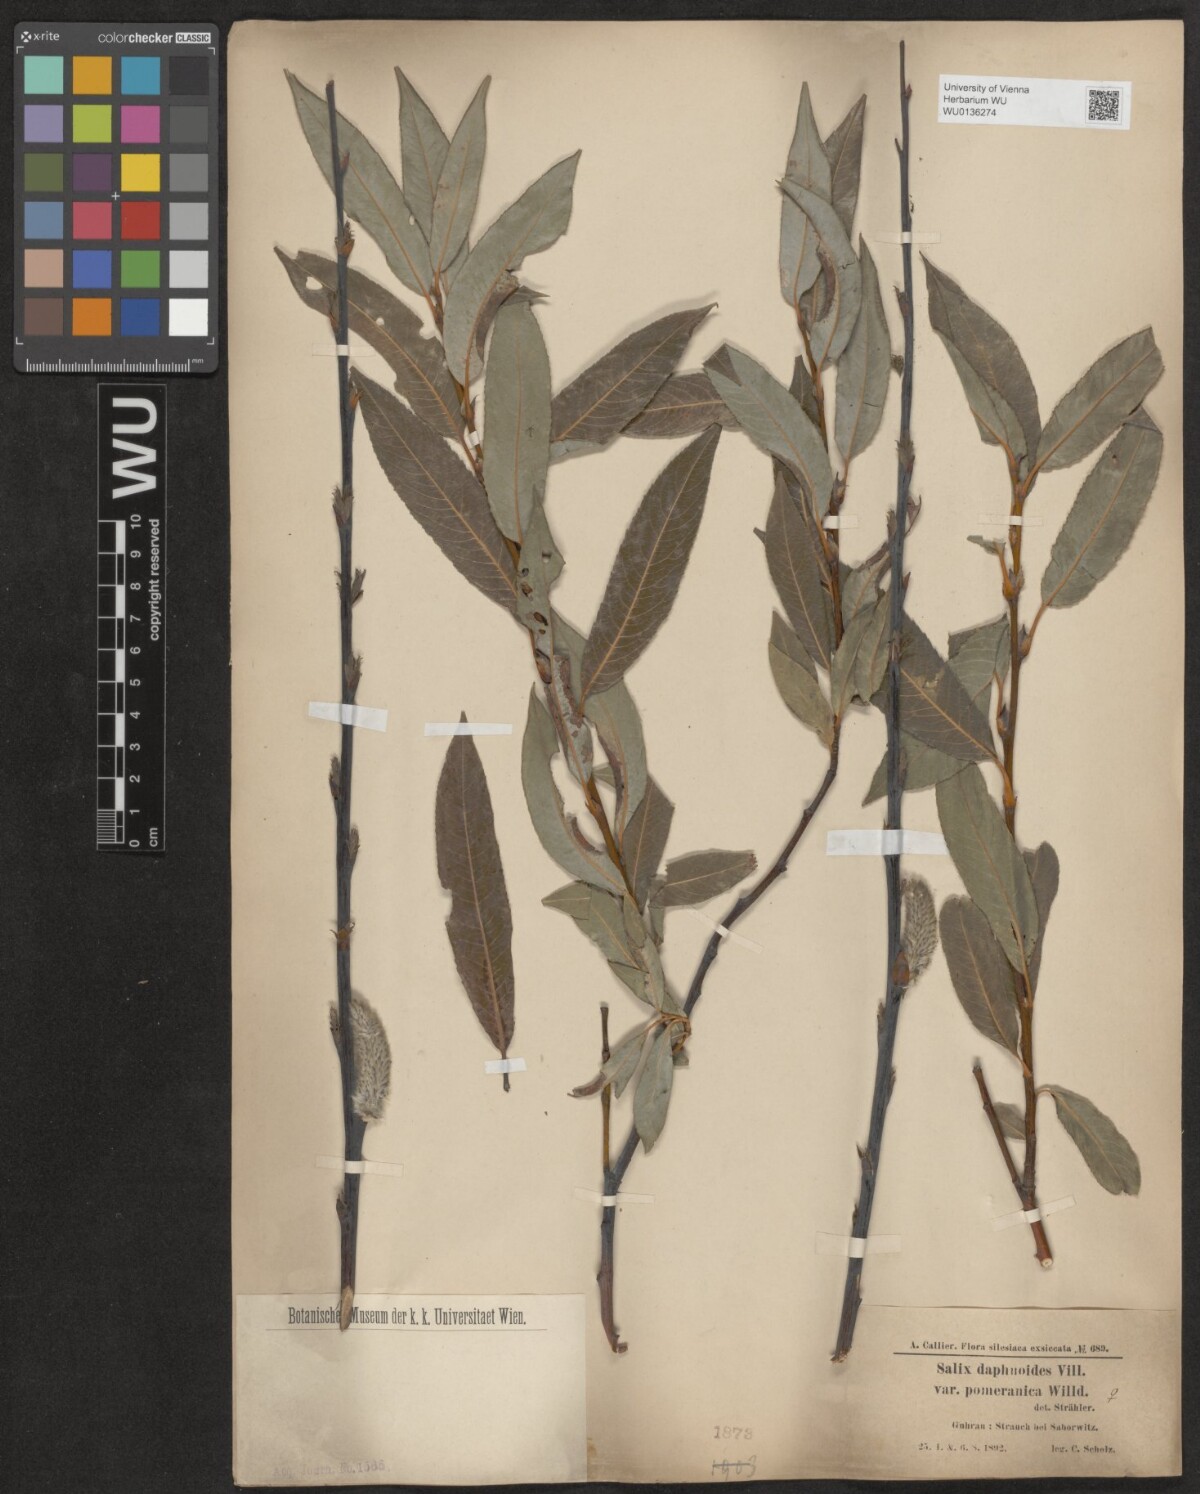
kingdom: Plantae
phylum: Tracheophyta
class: Magnoliopsida
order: Malpighiales
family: Salicaceae
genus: Salix
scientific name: Salix daphnoides
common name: European violet-willow
